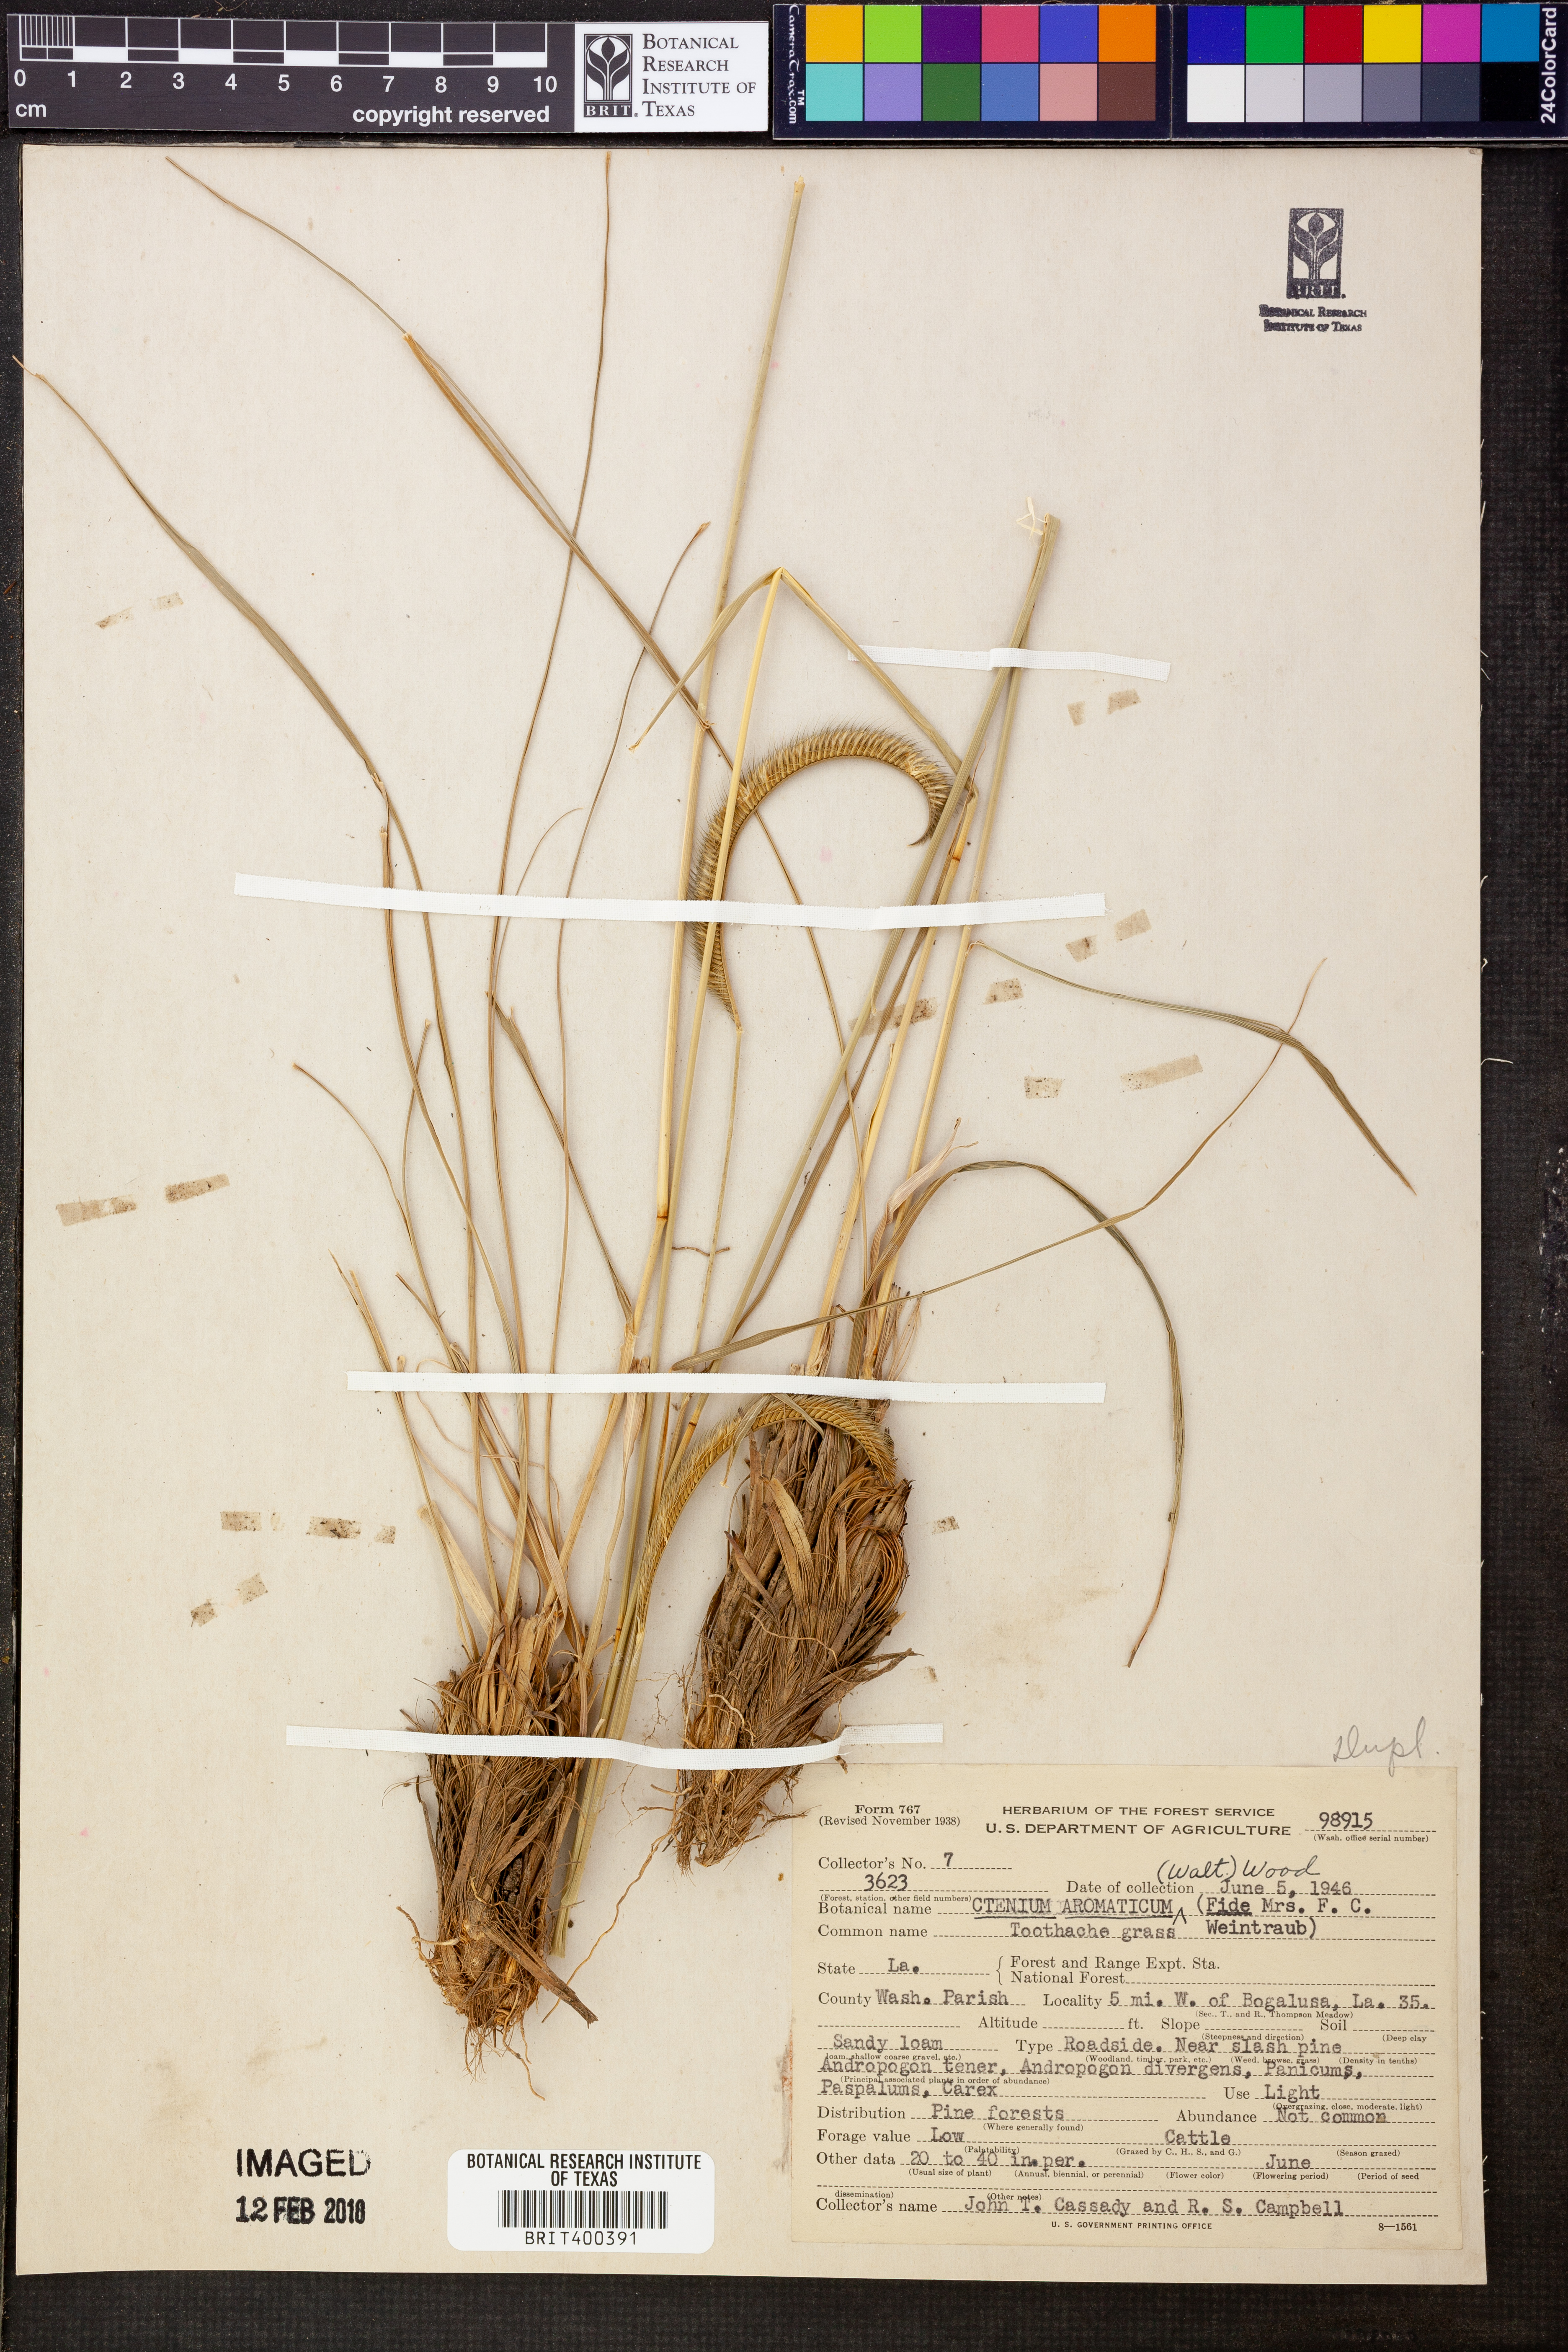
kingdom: Plantae
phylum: Tracheophyta
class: Liliopsida
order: Poales
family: Poaceae
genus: Ctenium
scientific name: Ctenium aromaticum
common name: Toothache grass
